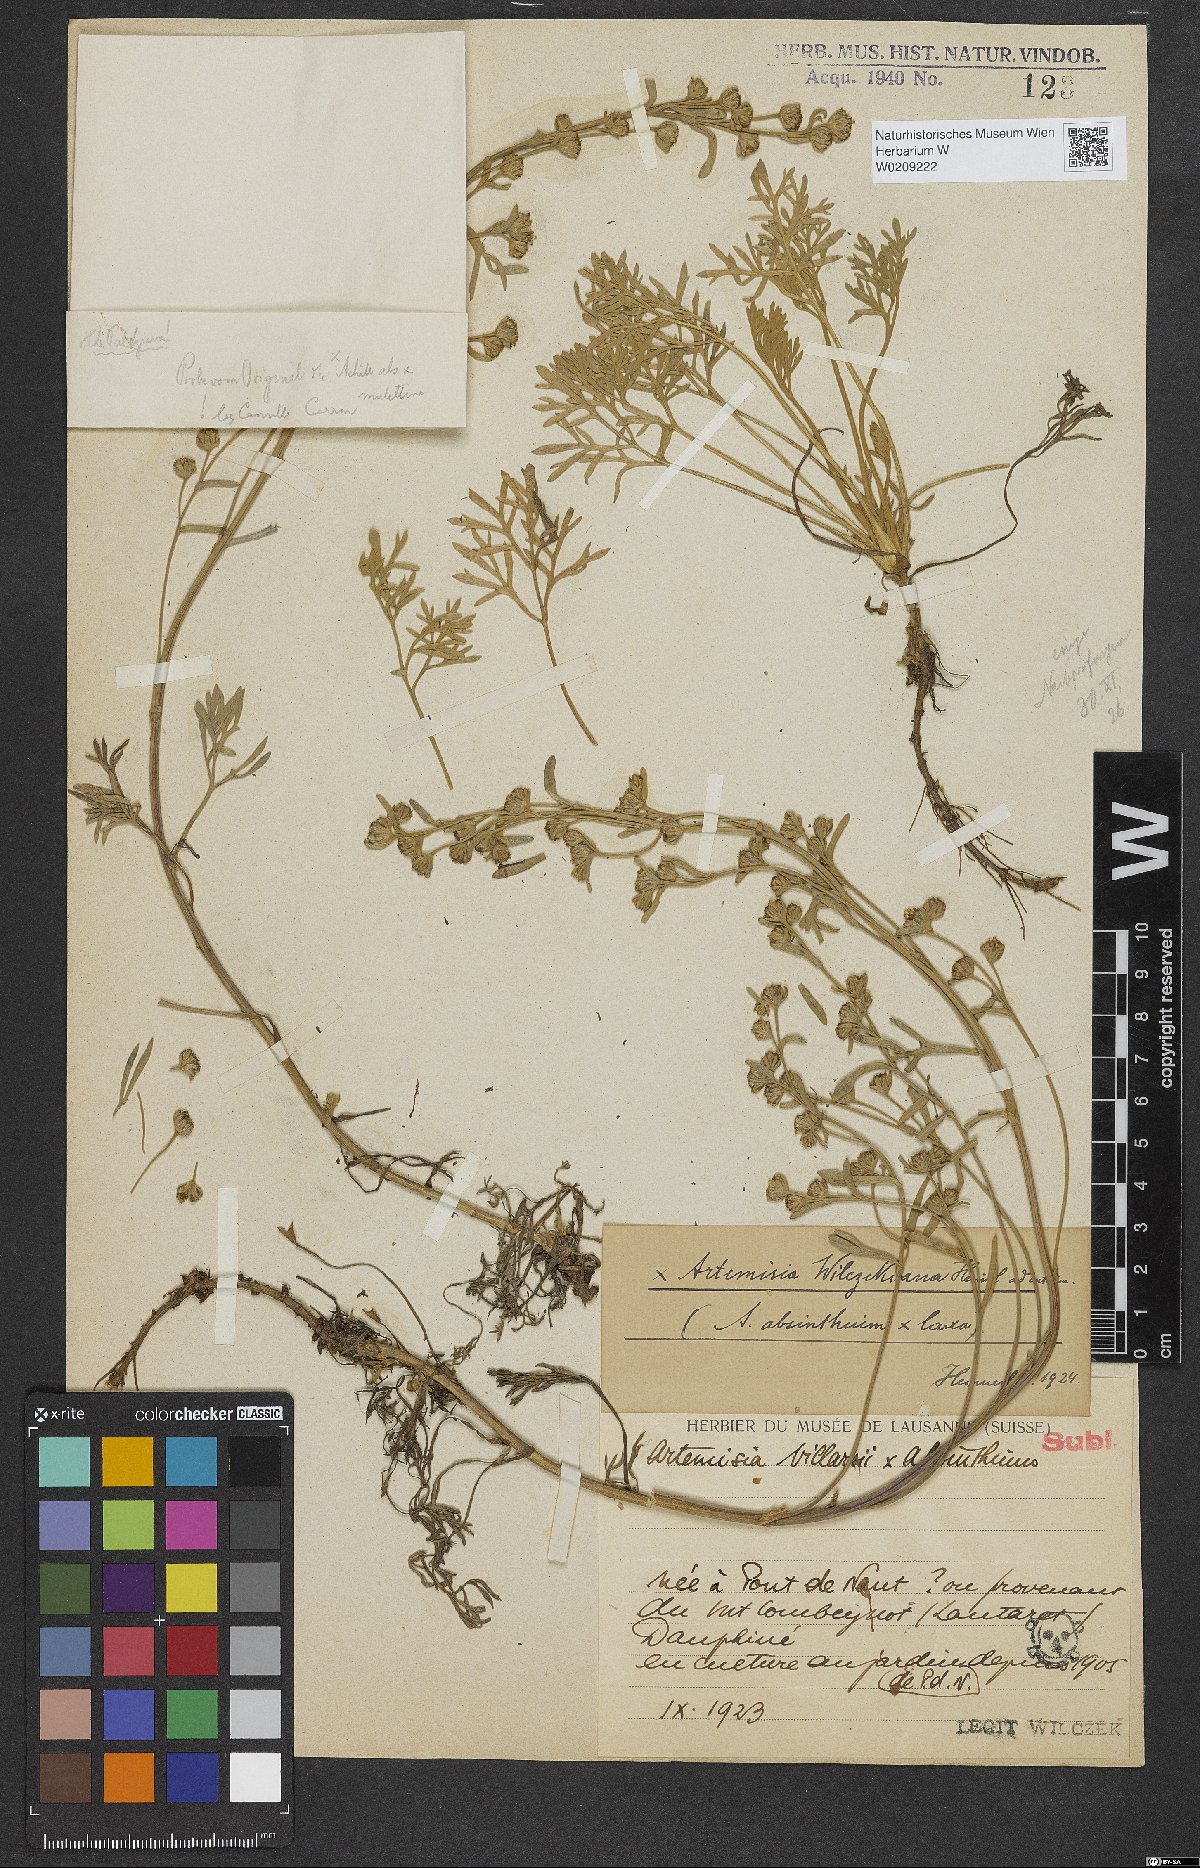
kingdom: Plantae
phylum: Tracheophyta
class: Magnoliopsida
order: Asterales
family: Asteraceae
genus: Artemisia
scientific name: Artemisia wilczekiana
